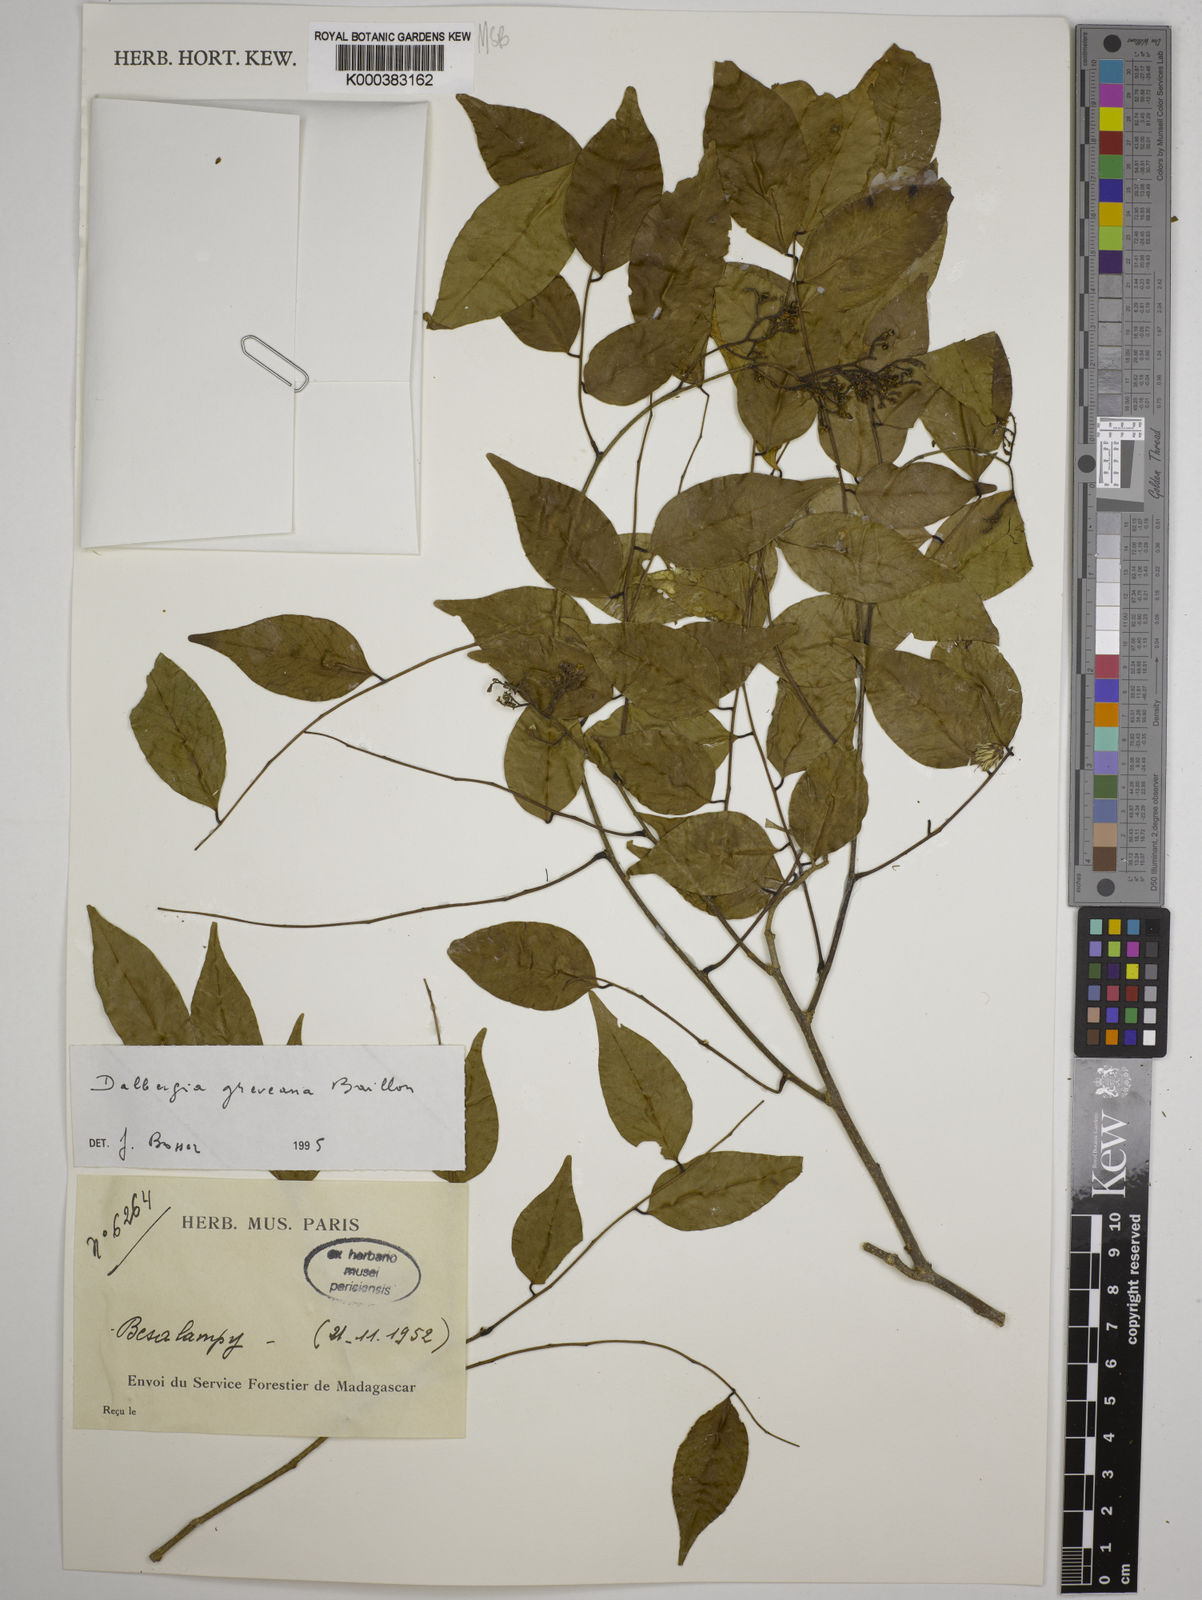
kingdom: Plantae
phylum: Tracheophyta
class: Magnoliopsida
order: Fabales
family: Fabaceae
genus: Dalbergia
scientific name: Dalbergia greveana
